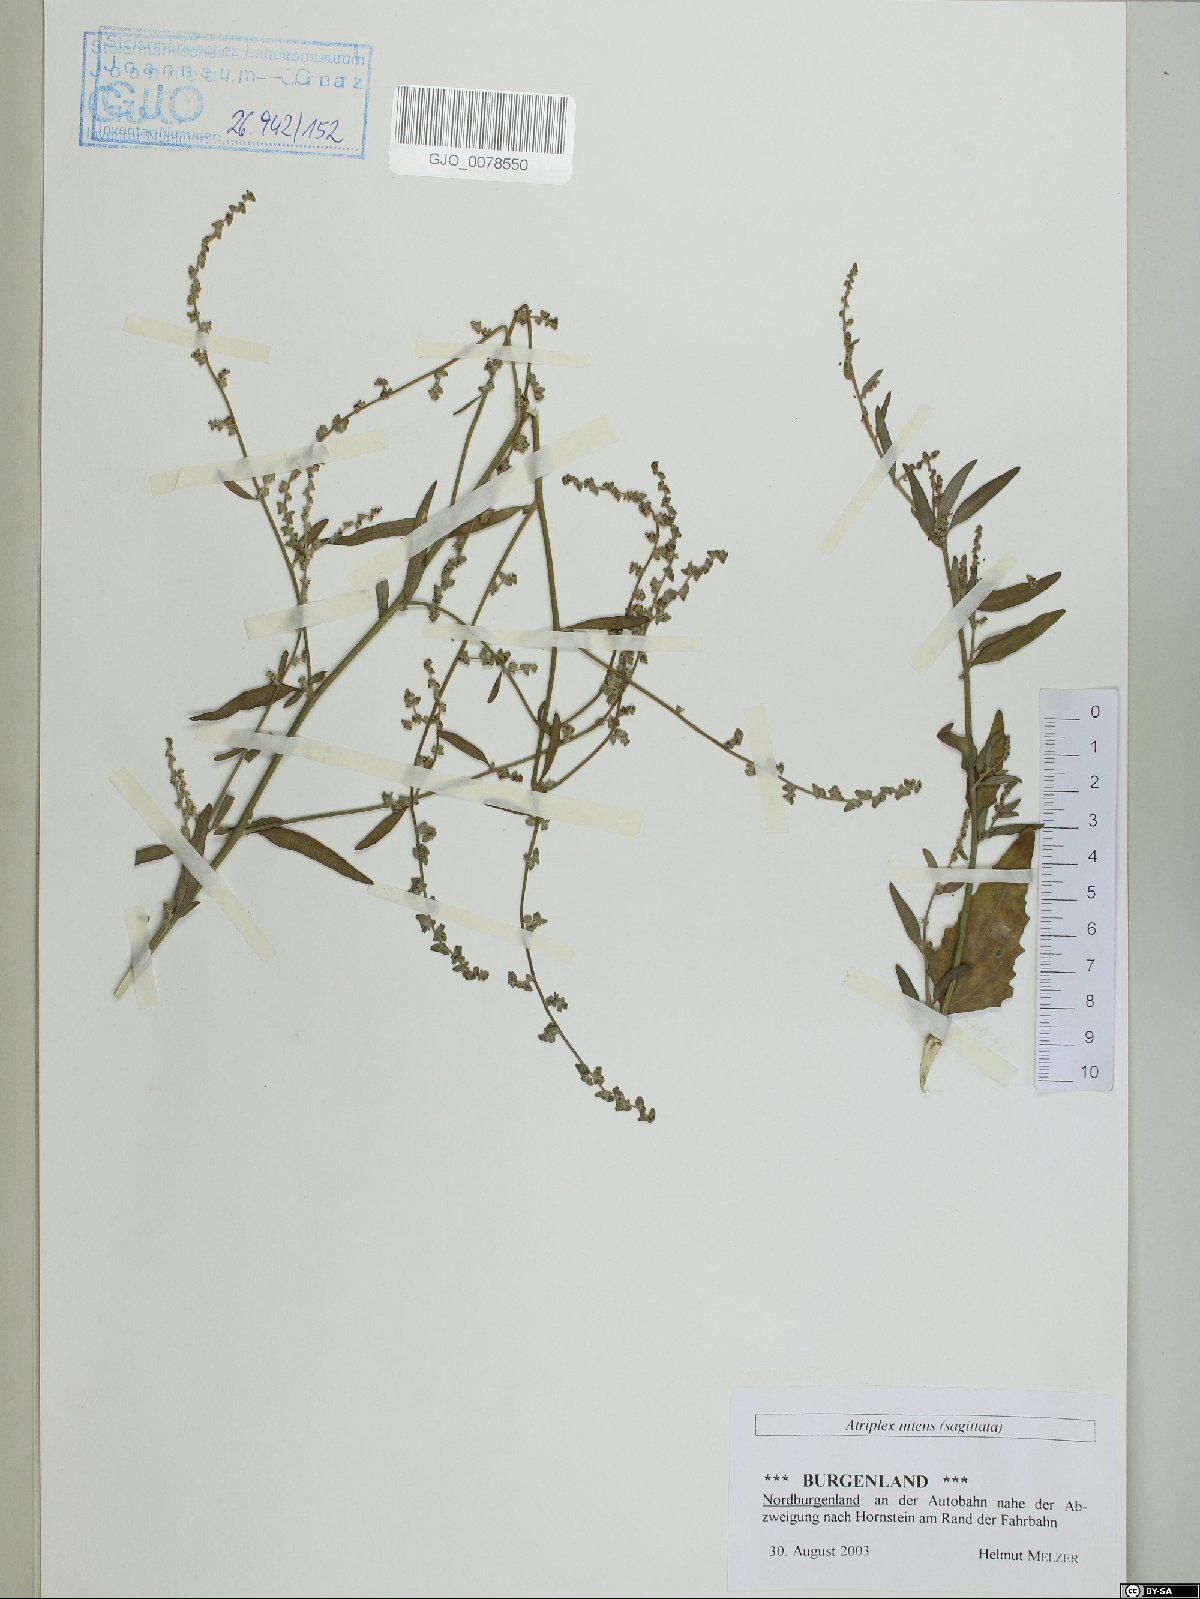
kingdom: Plantae
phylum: Tracheophyta
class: Magnoliopsida
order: Caryophyllales
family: Amaranthaceae
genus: Atriplex
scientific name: Atriplex sagittata
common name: Purple orache
